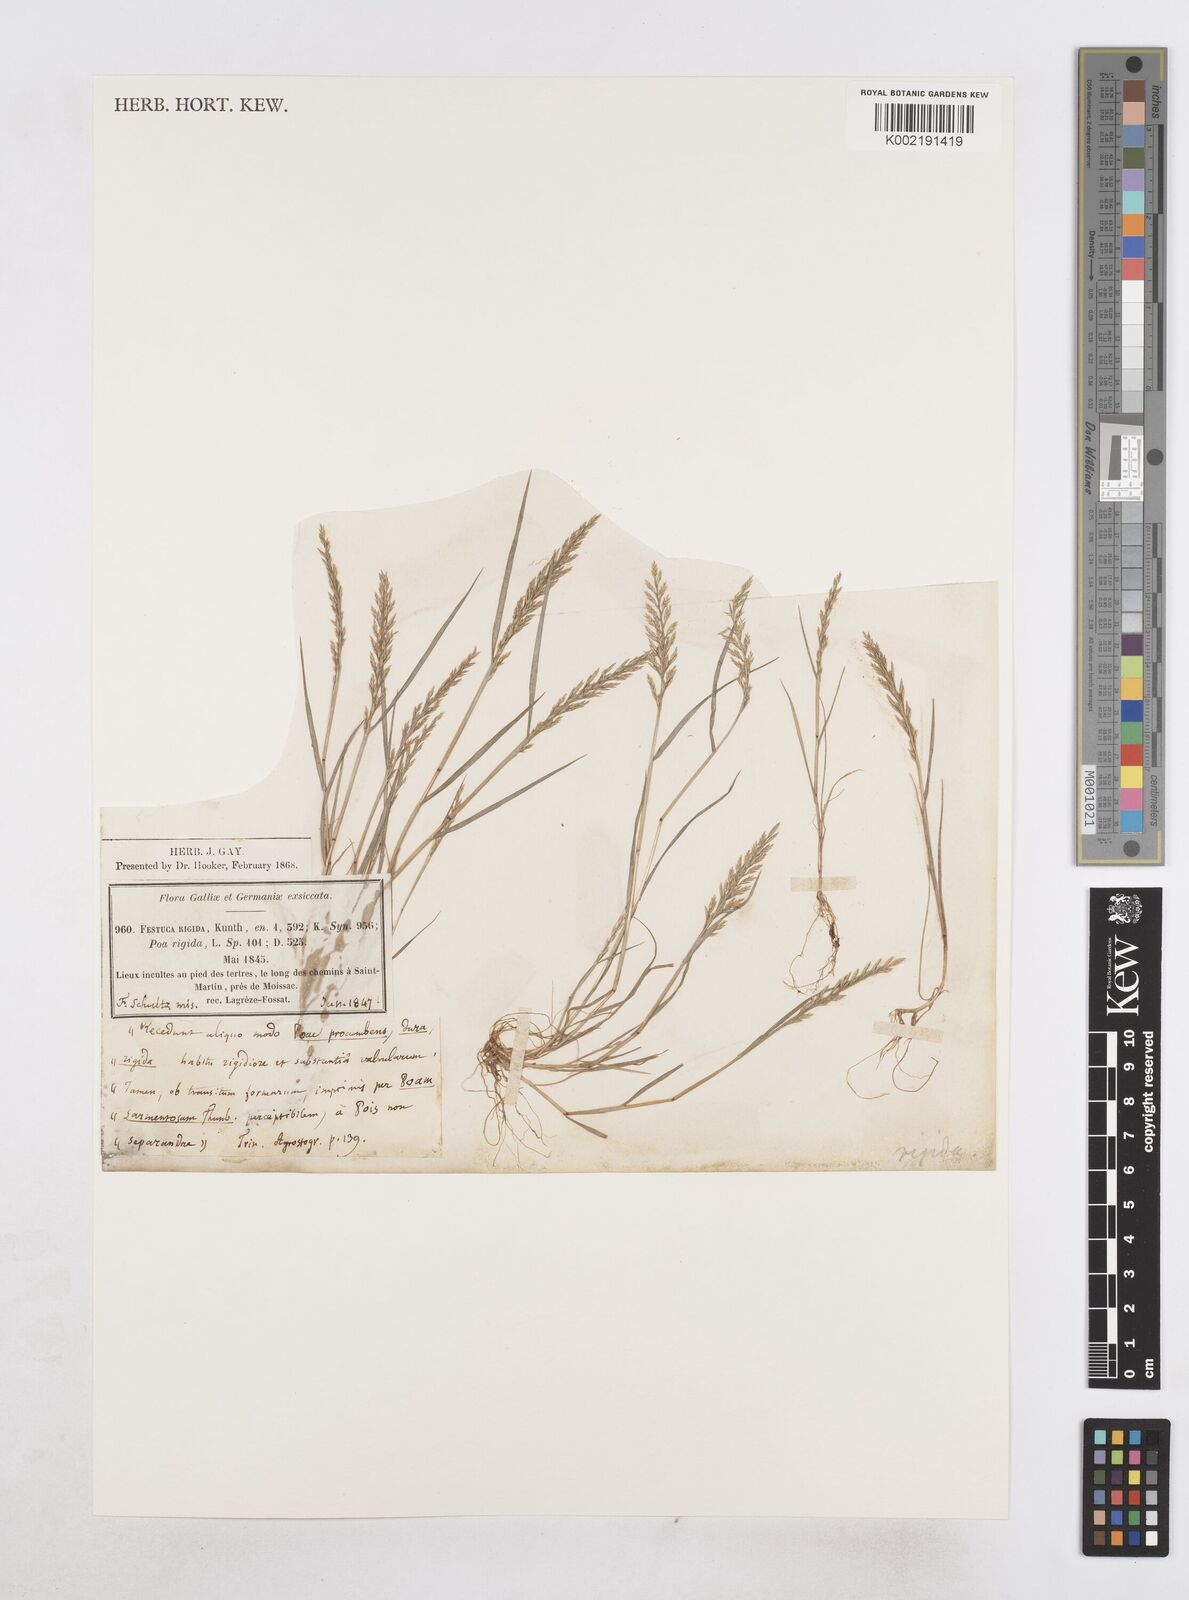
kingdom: Plantae
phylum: Tracheophyta
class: Liliopsida
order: Poales
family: Poaceae
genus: Catapodium
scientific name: Catapodium rigidum
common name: Fern-grass
